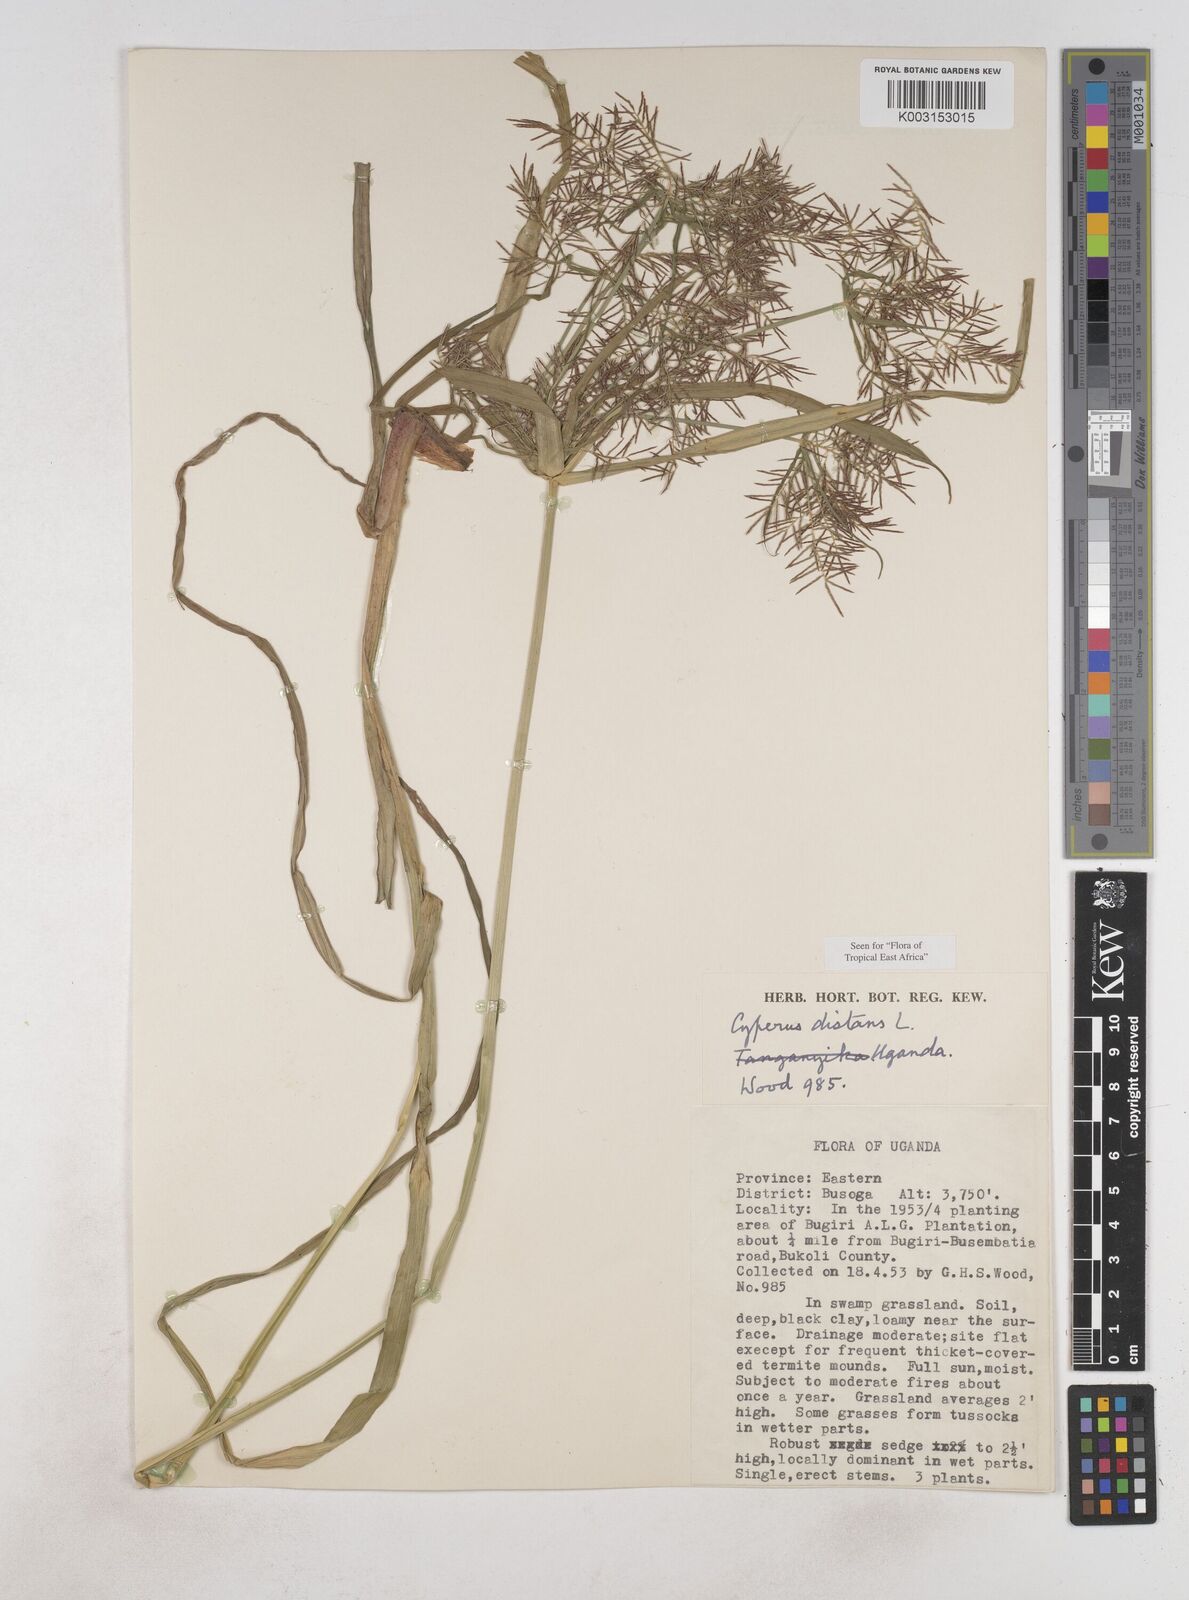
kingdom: Plantae
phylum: Tracheophyta
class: Liliopsida
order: Poales
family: Cyperaceae
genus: Cyperus
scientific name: Cyperus distans
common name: Slender cyperus
